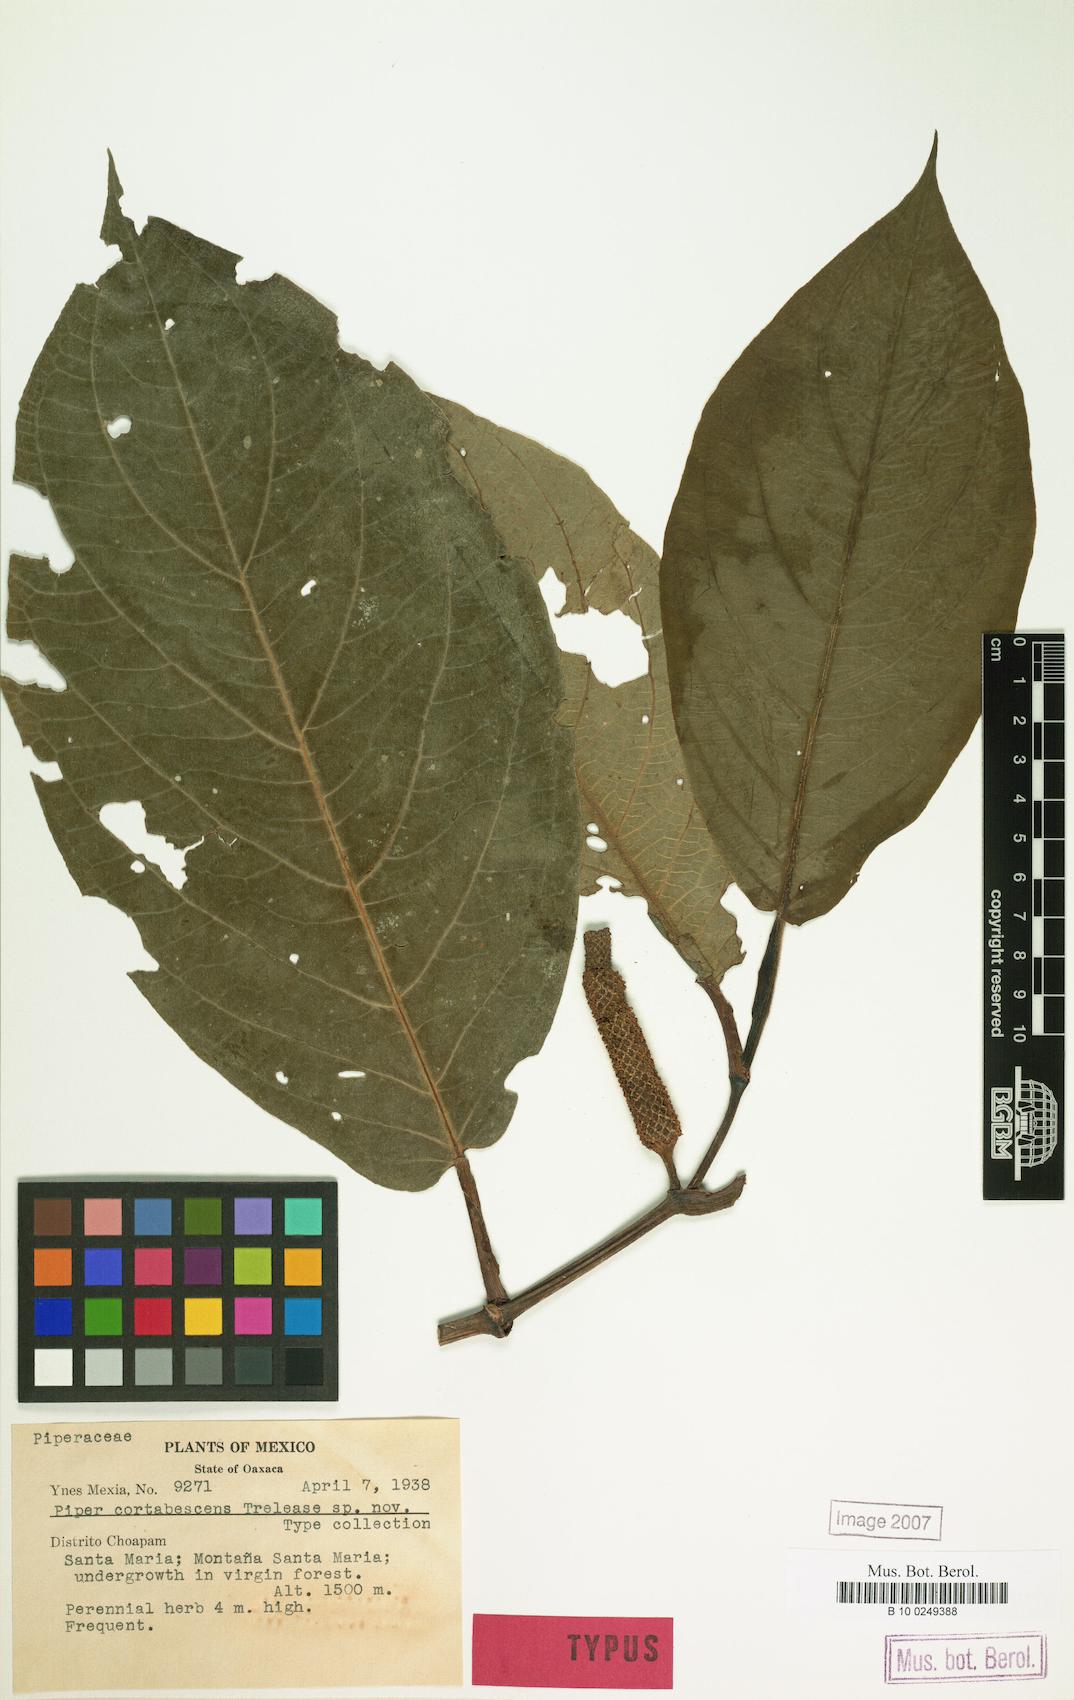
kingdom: Plantae
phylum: Tracheophyta
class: Magnoliopsida
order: Piperales
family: Piperaceae
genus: Piper
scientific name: Piper
